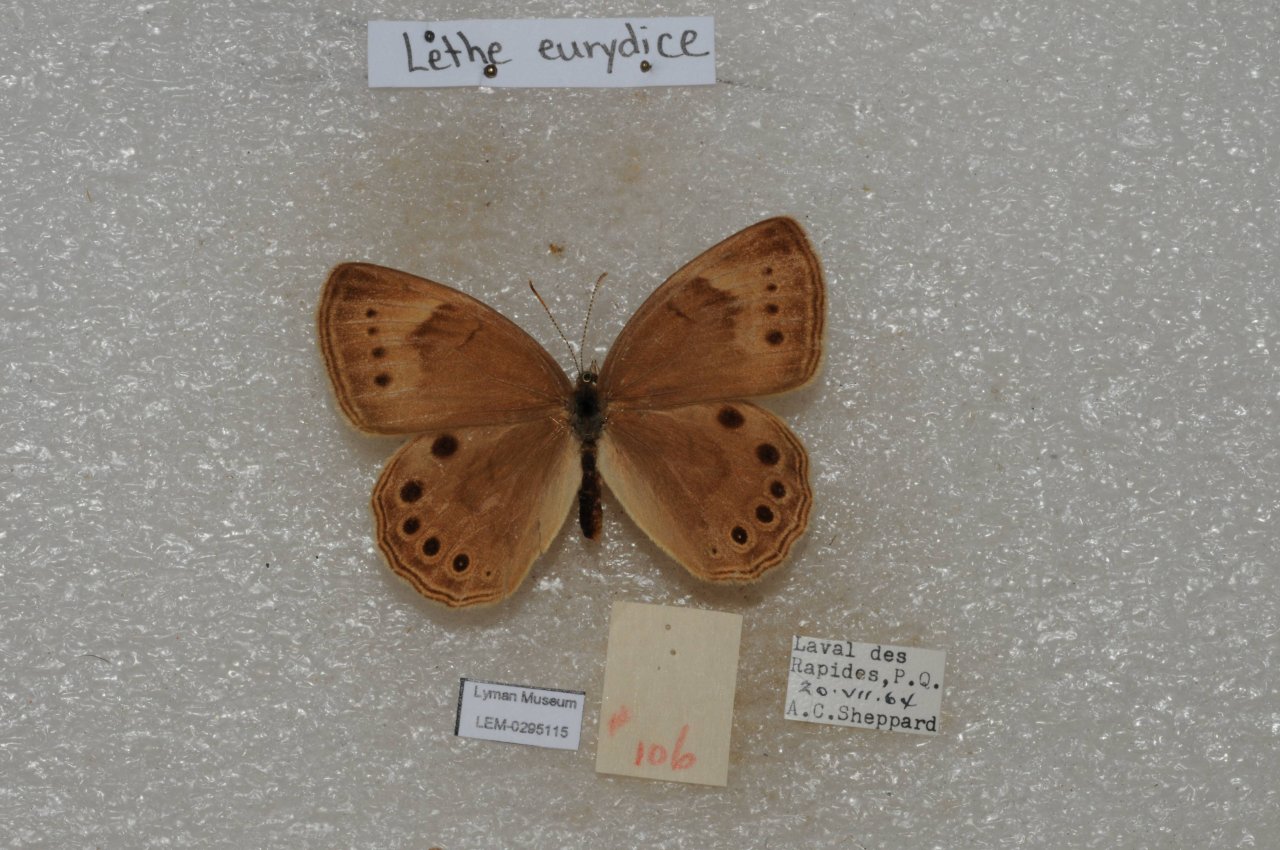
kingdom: Animalia
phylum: Arthropoda
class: Insecta
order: Lepidoptera
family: Nymphalidae
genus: Lethe
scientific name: Lethe eurydice
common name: Eyed Brown
